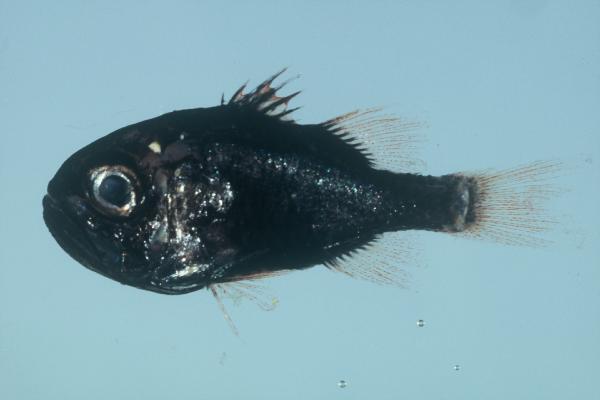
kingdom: Animalia
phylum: Chordata
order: Perciformes
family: Apogonidae
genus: Siphamia
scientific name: Siphamia
